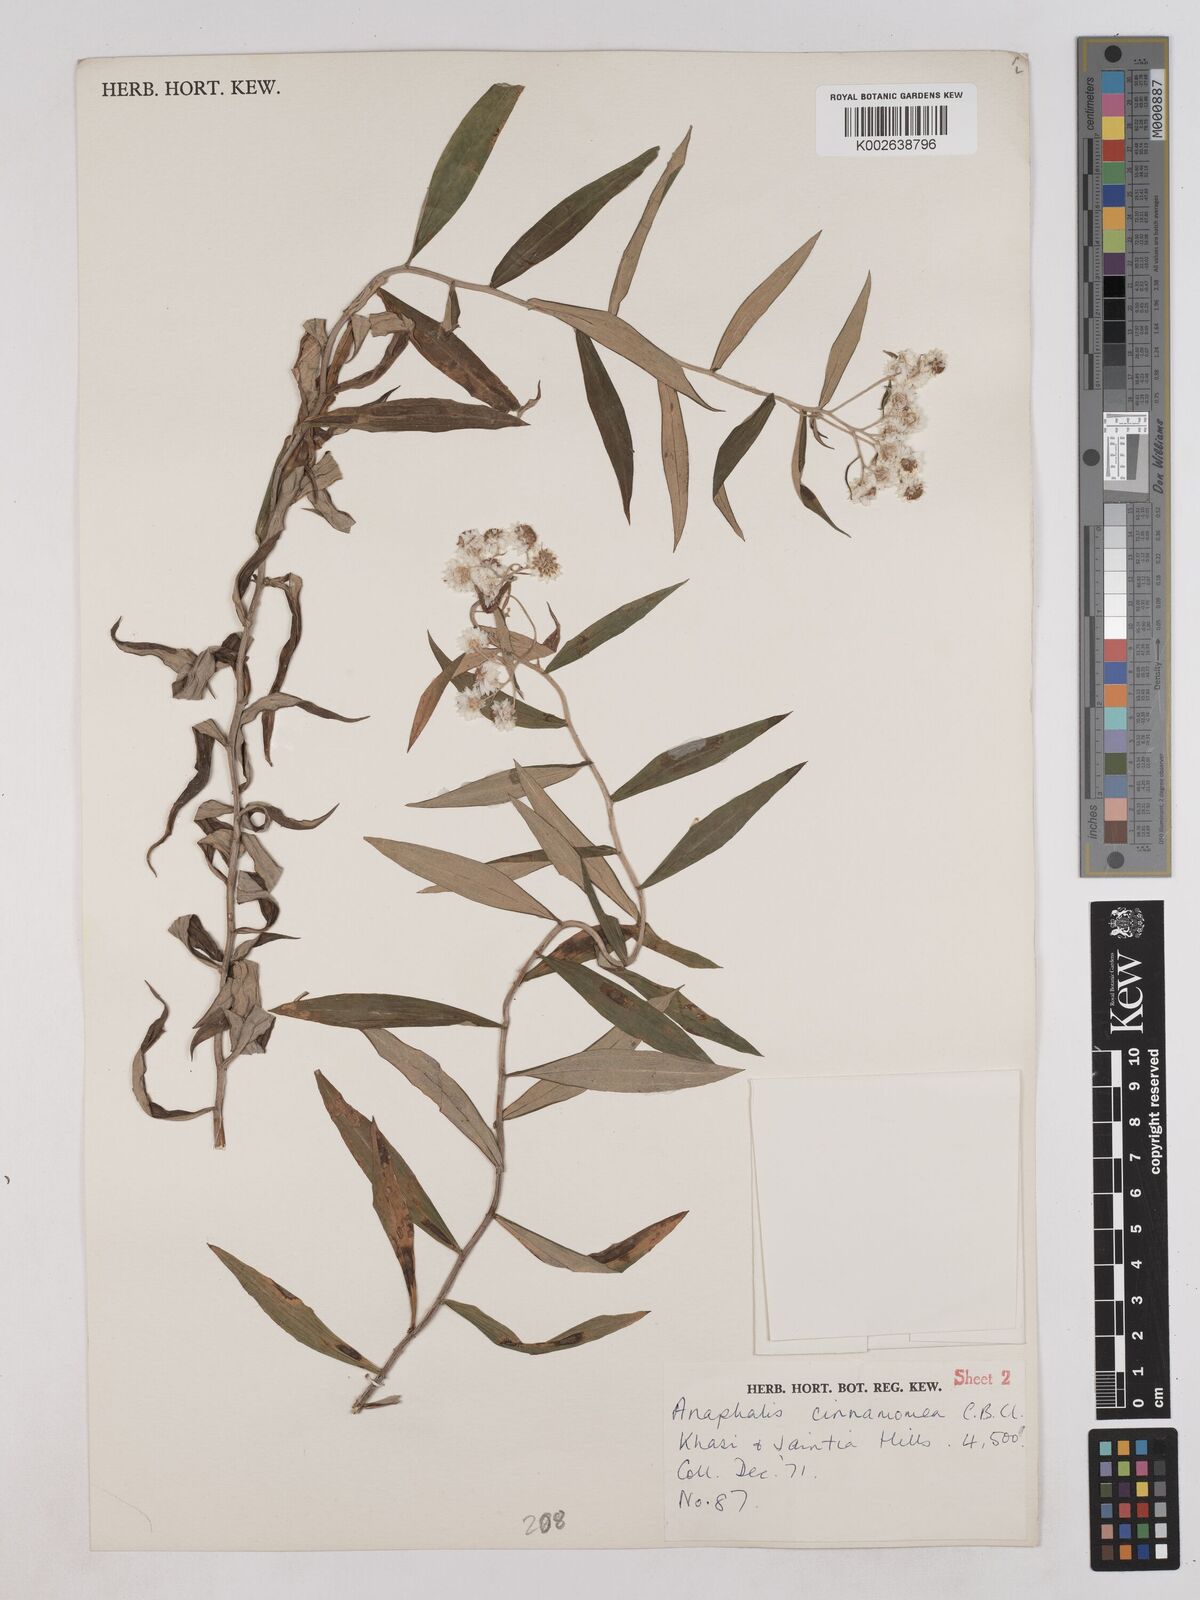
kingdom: Plantae
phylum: Tracheophyta
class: Magnoliopsida
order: Asterales
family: Asteraceae
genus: Anaphalis
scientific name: Anaphalis marcescens
